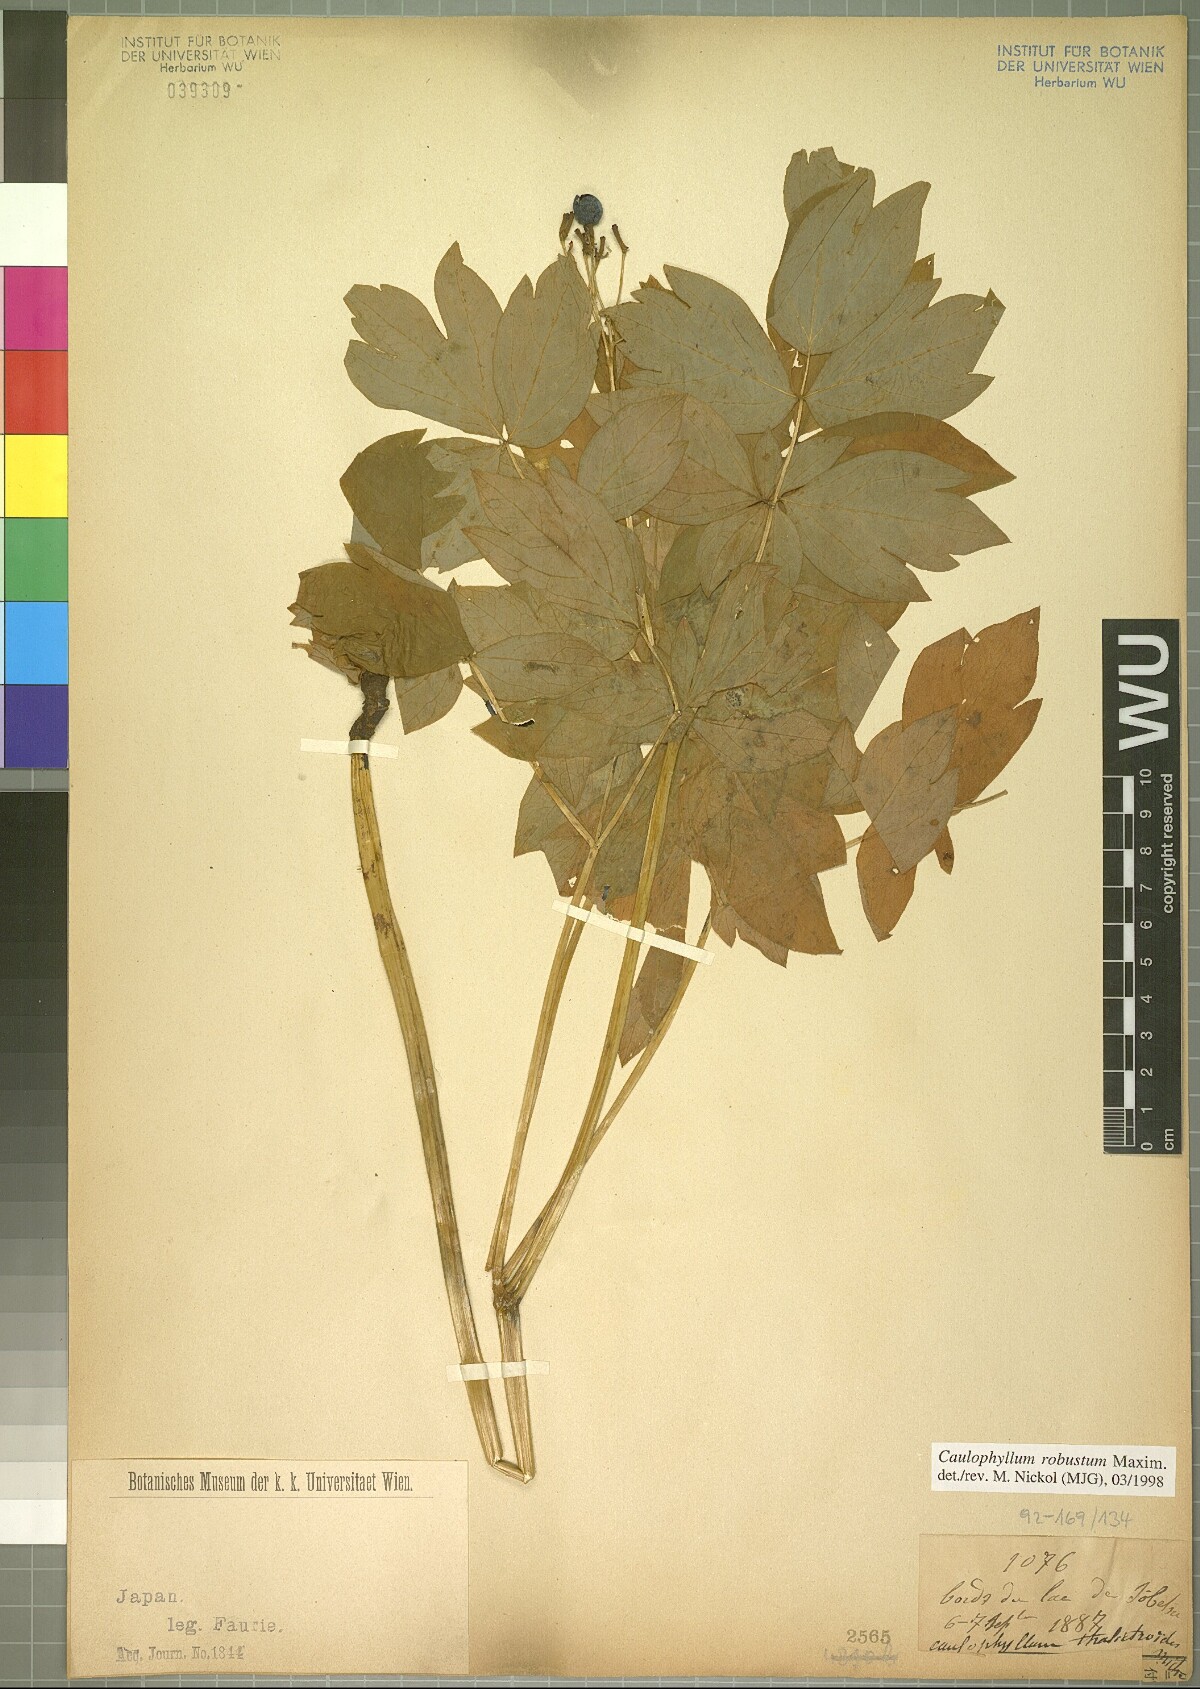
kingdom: Plantae
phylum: Tracheophyta
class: Magnoliopsida
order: Ranunculales
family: Berberidaceae
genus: Caulophyllum
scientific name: Caulophyllum robustum
